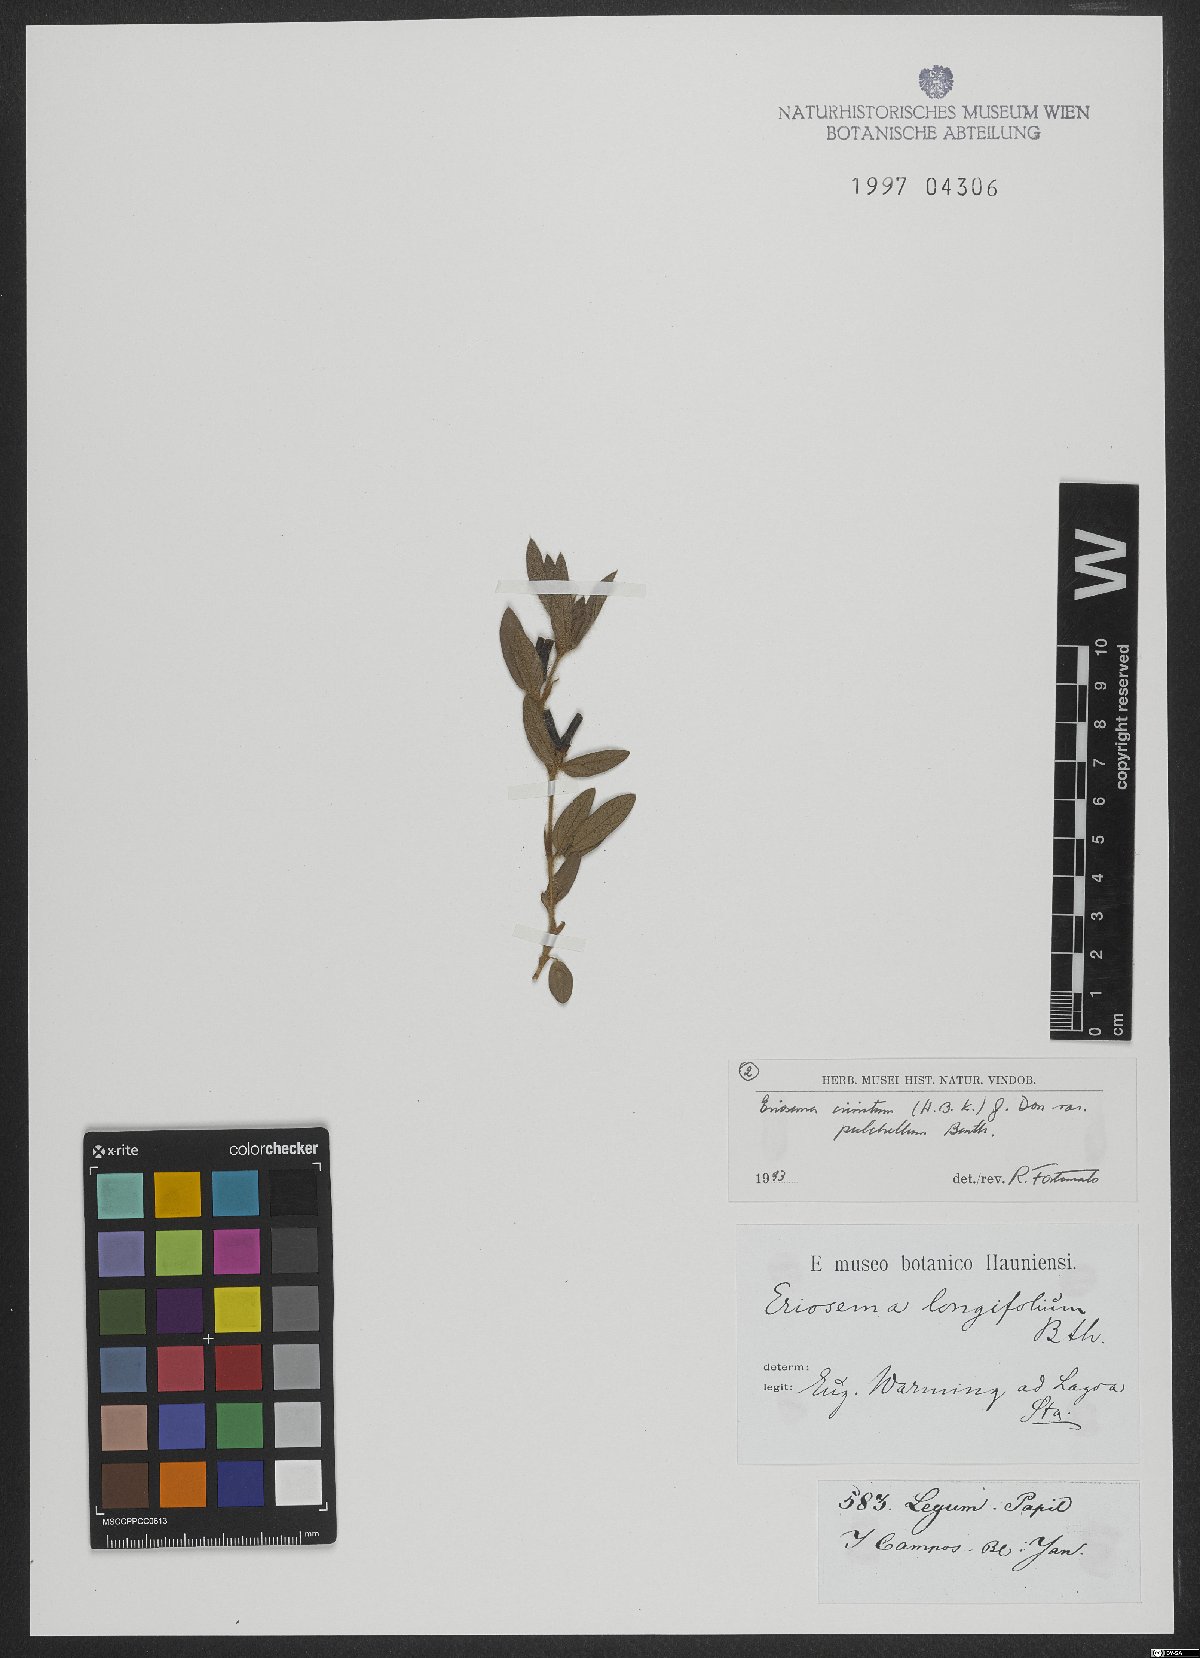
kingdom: Plantae
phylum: Tracheophyta
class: Magnoliopsida
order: Fabales
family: Fabaceae
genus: Eriosema
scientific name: Eriosema crinitum
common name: Sand pea
